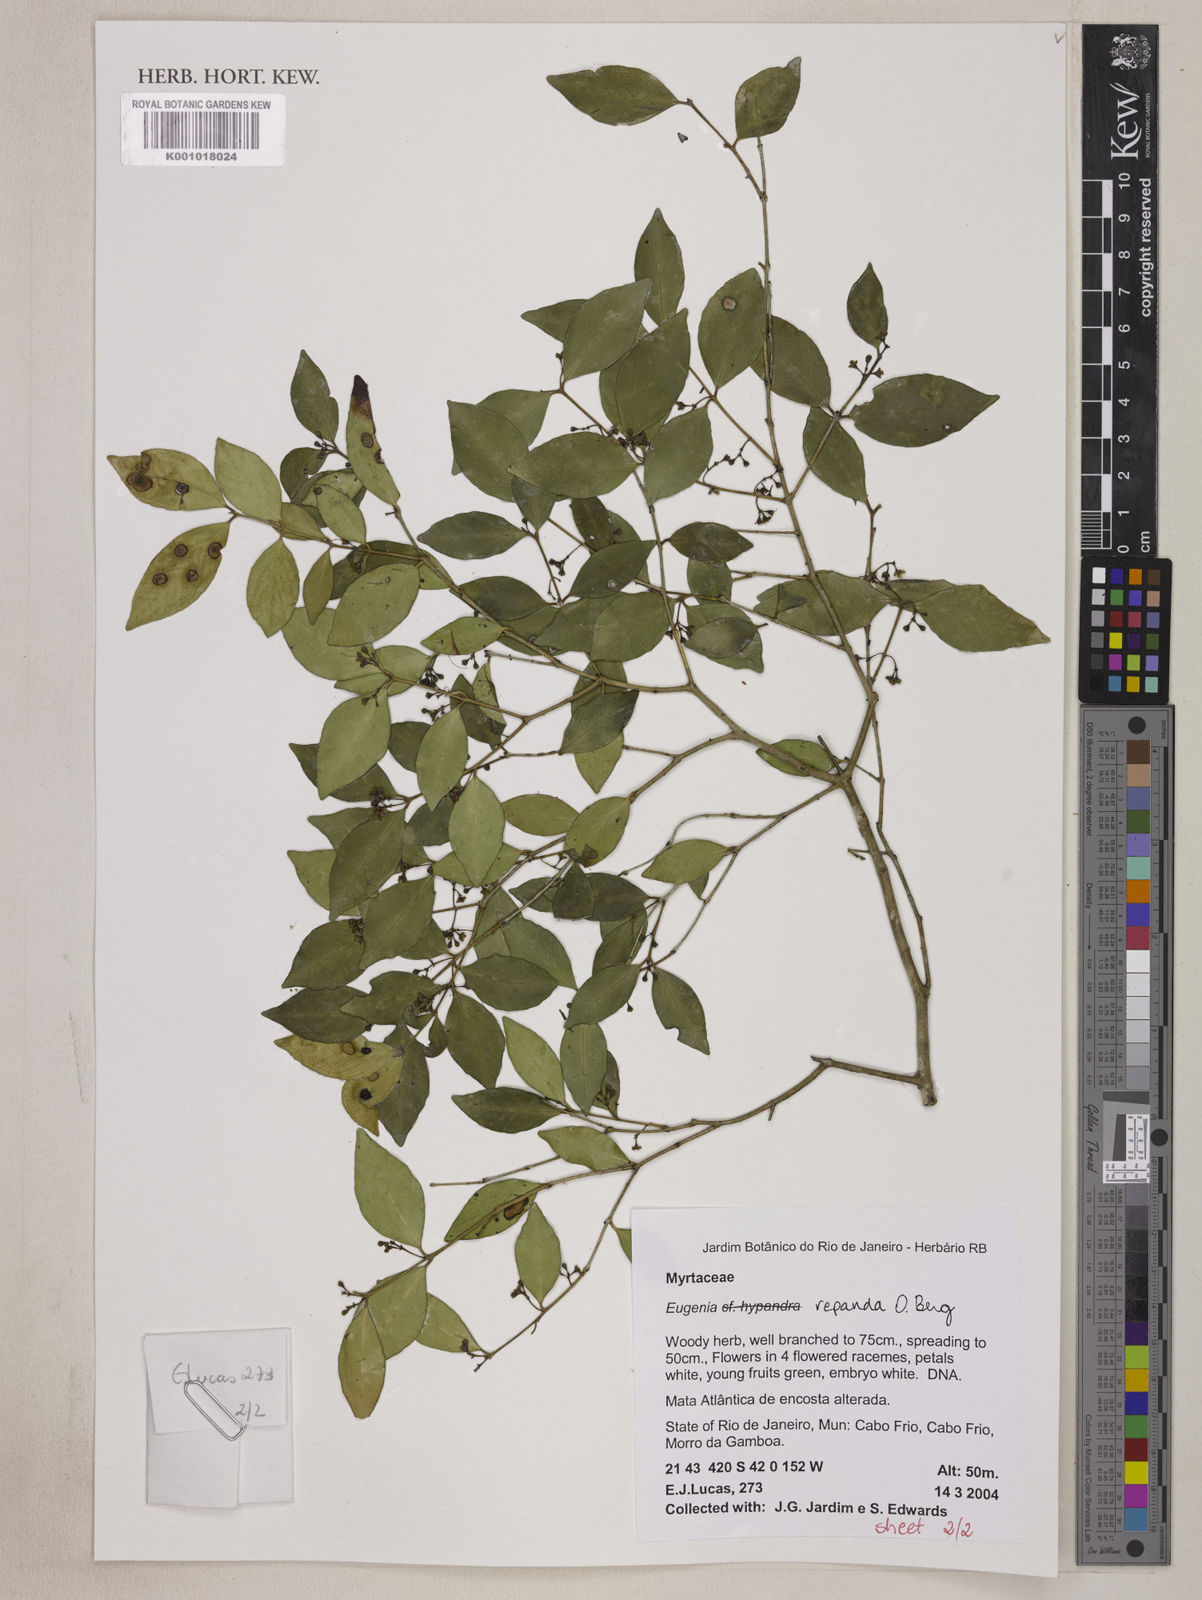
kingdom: Plantae
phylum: Tracheophyta
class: Magnoliopsida
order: Myrtales
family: Myrtaceae
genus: Eugenia
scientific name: Eugenia repanda
